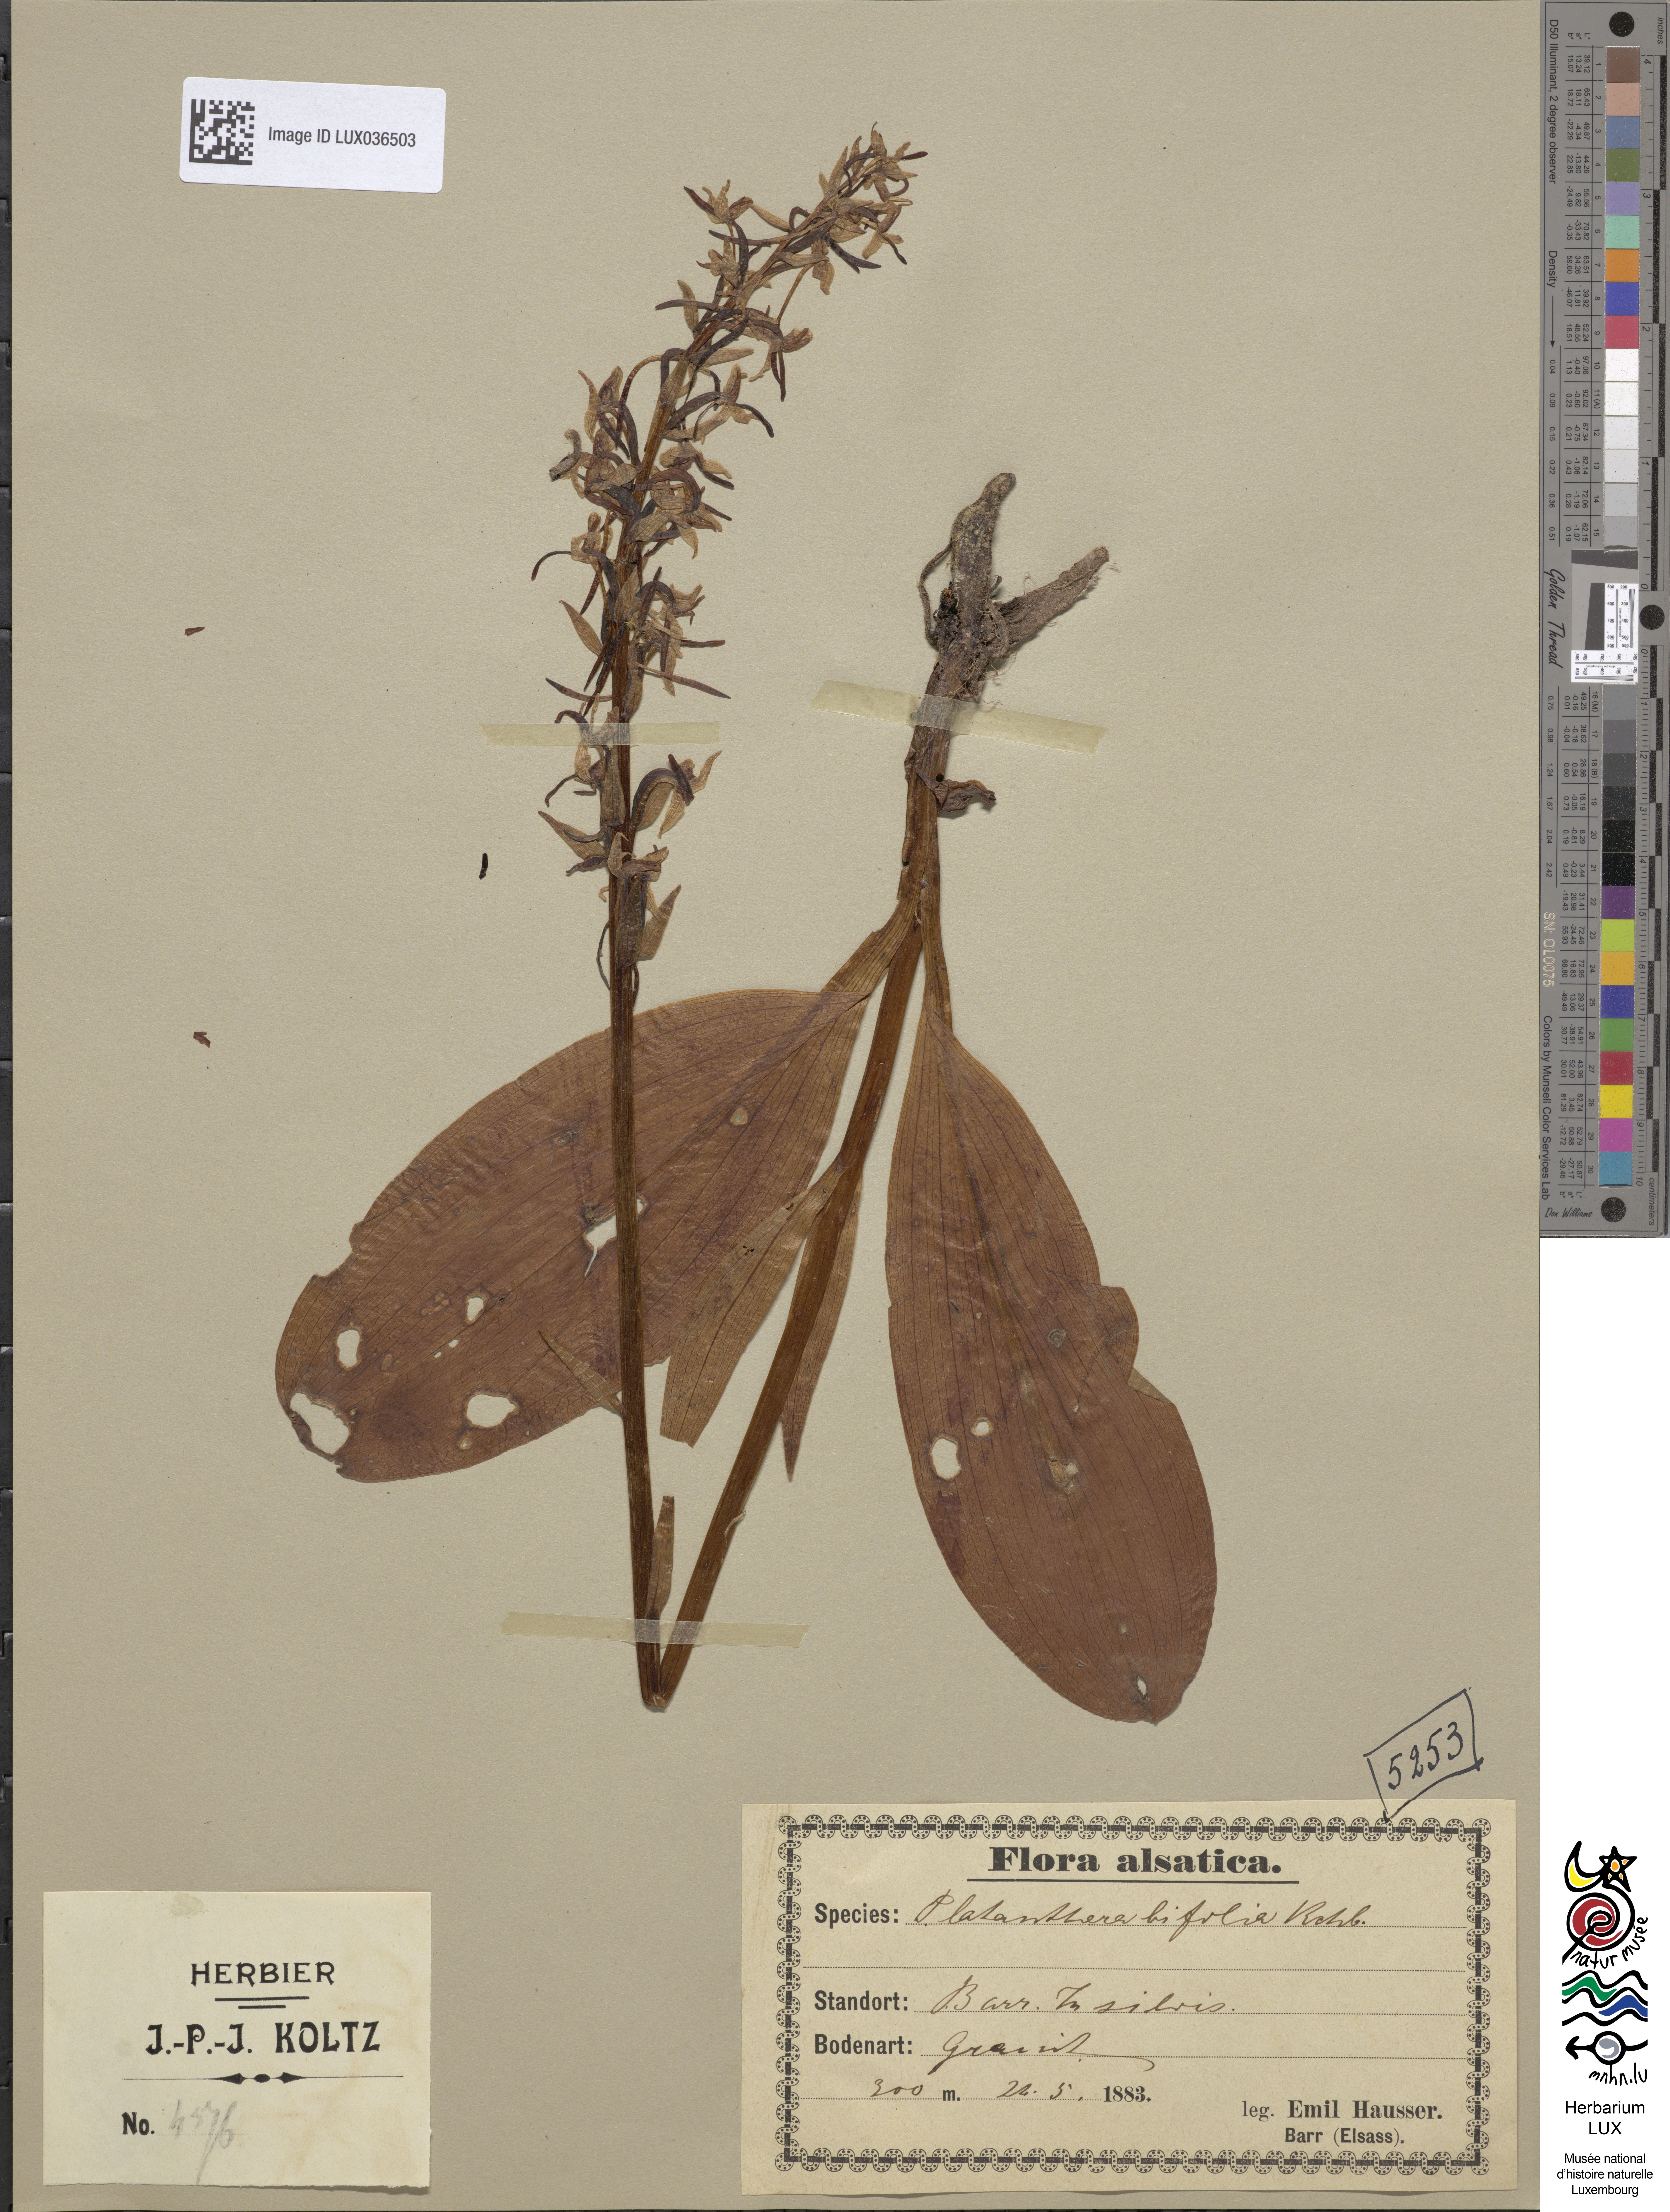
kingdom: Plantae
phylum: Tracheophyta
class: Liliopsida
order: Asparagales
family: Orchidaceae
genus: Platanthera
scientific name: Platanthera bifolia
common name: Lesser butterfly-orchid
